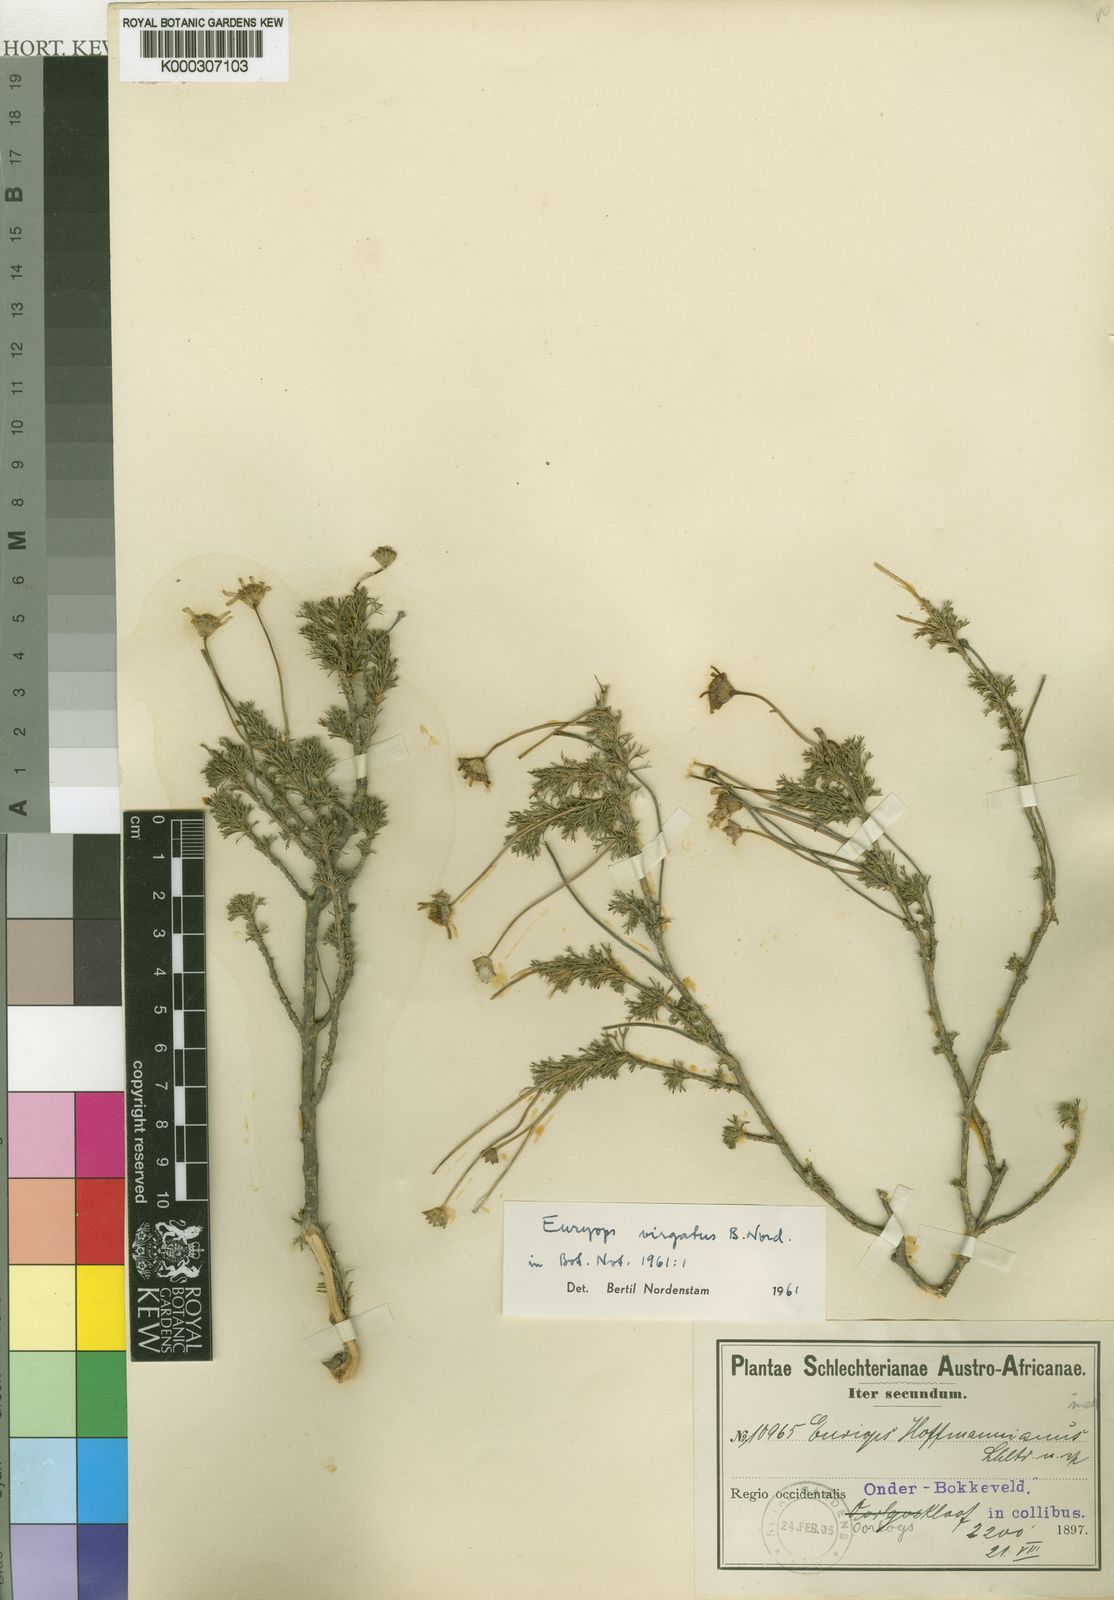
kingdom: Plantae
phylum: Tracheophyta
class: Magnoliopsida
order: Asterales
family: Asteraceae
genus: Euryops
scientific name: Euryops virgatus
